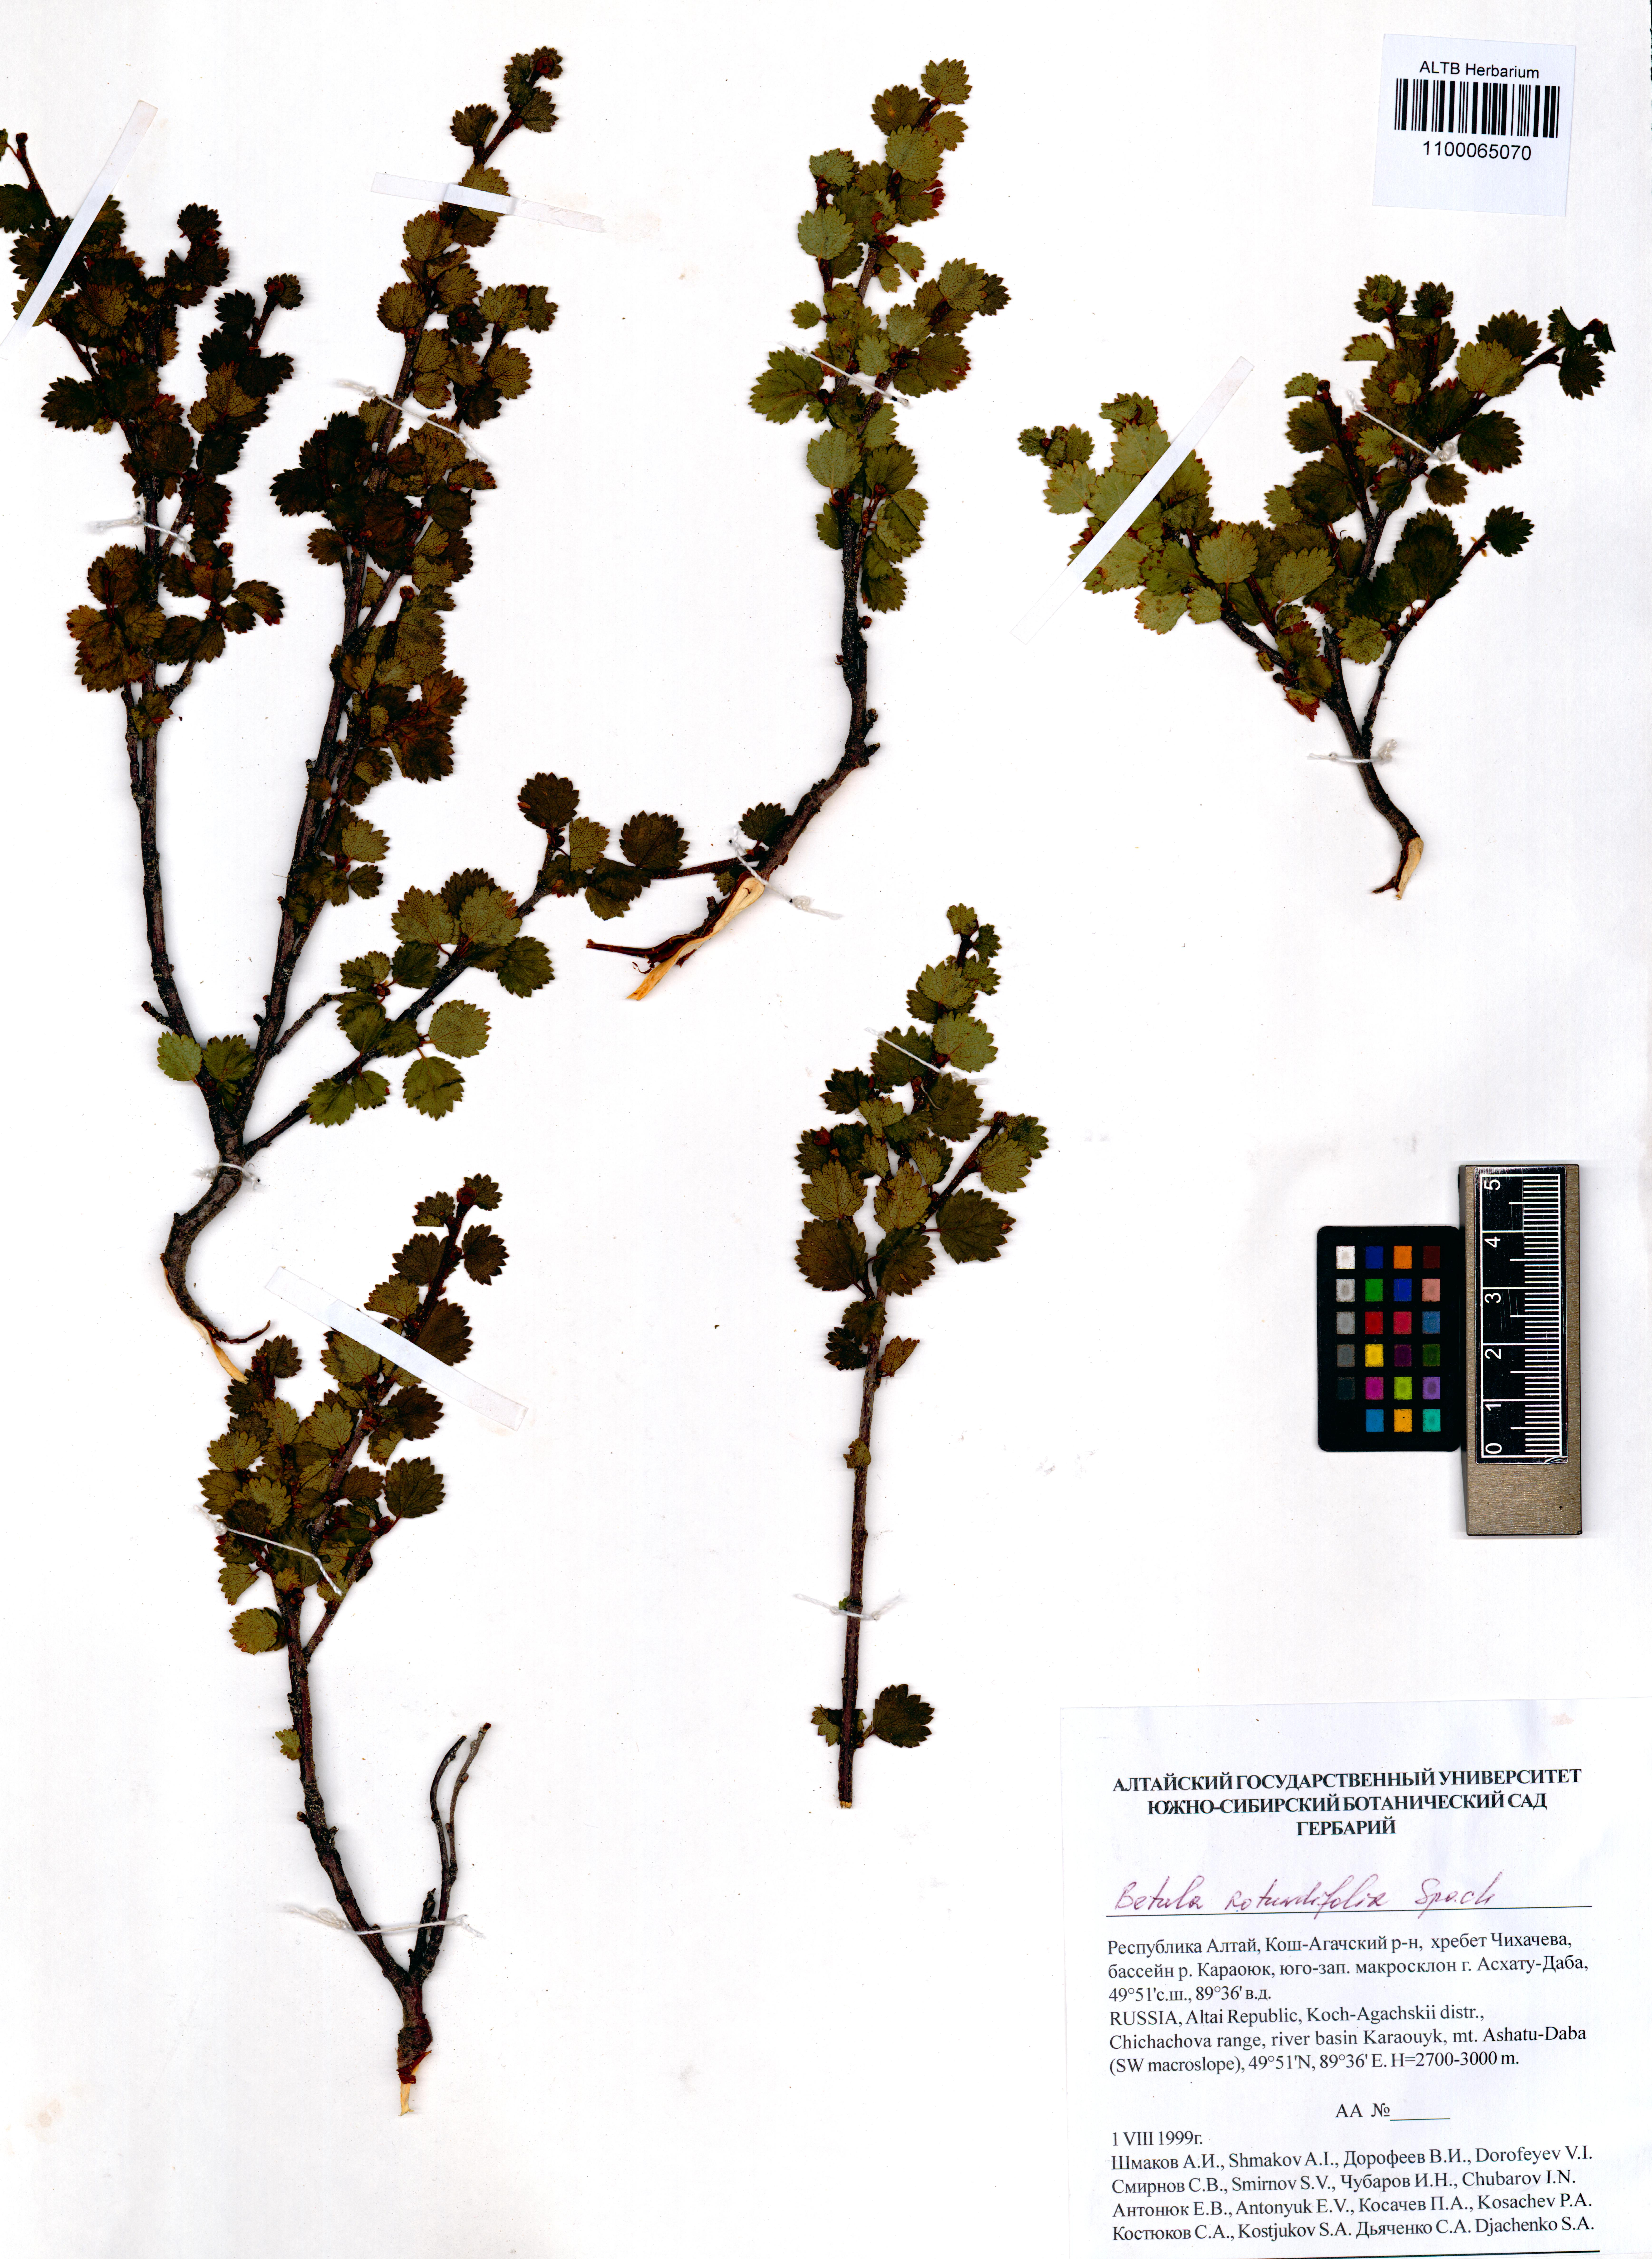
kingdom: Plantae
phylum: Tracheophyta
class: Magnoliopsida
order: Fagales
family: Betulaceae
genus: Betula
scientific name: Betula glandulosa
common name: Dwarf birch
